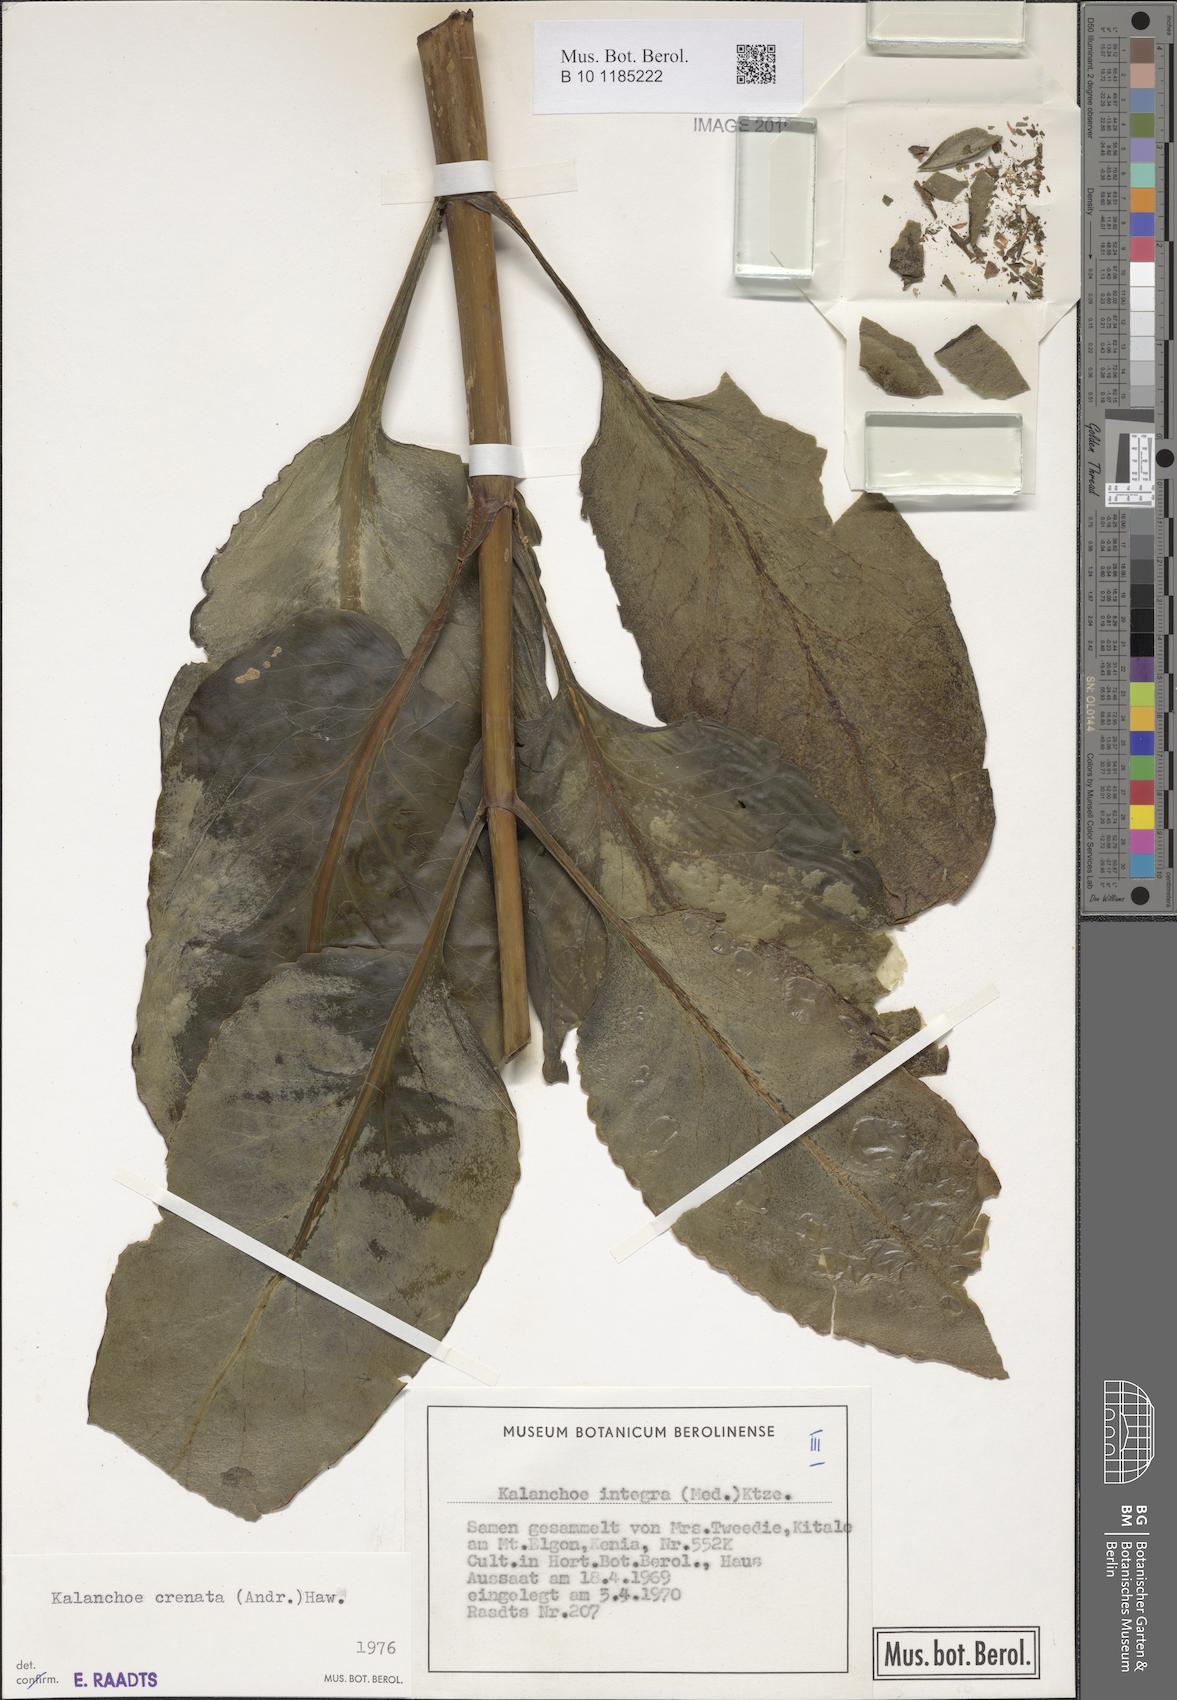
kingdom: Plantae
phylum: Tracheophyta
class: Magnoliopsida
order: Saxifragales
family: Crassulaceae
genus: Kalanchoe
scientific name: Kalanchoe crenata
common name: Neverdie
